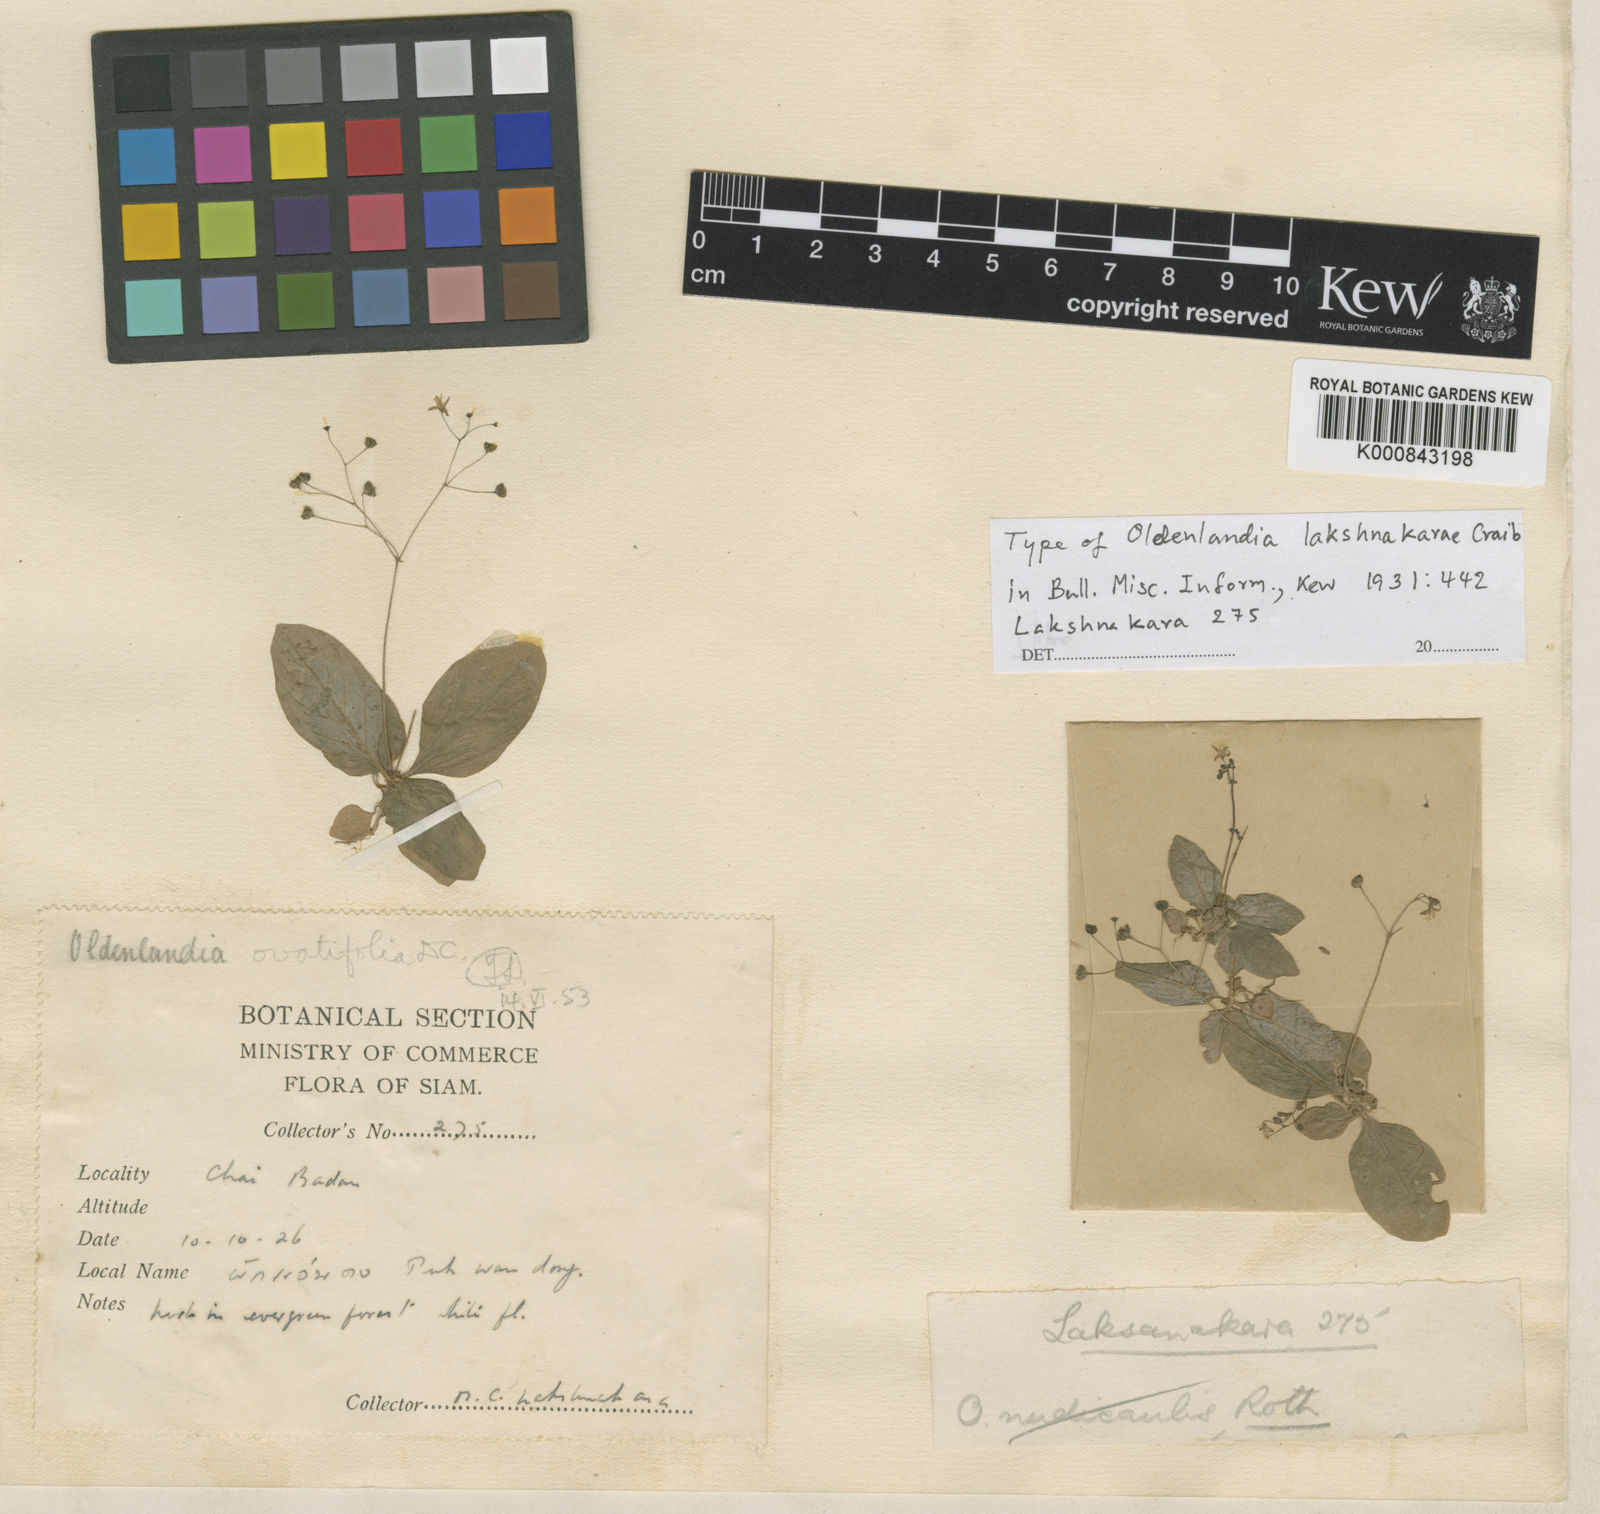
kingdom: Plantae
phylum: Tracheophyta
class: Magnoliopsida
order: Gentianales
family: Rubiaceae
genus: Debia
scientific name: Debia ovatifolia
